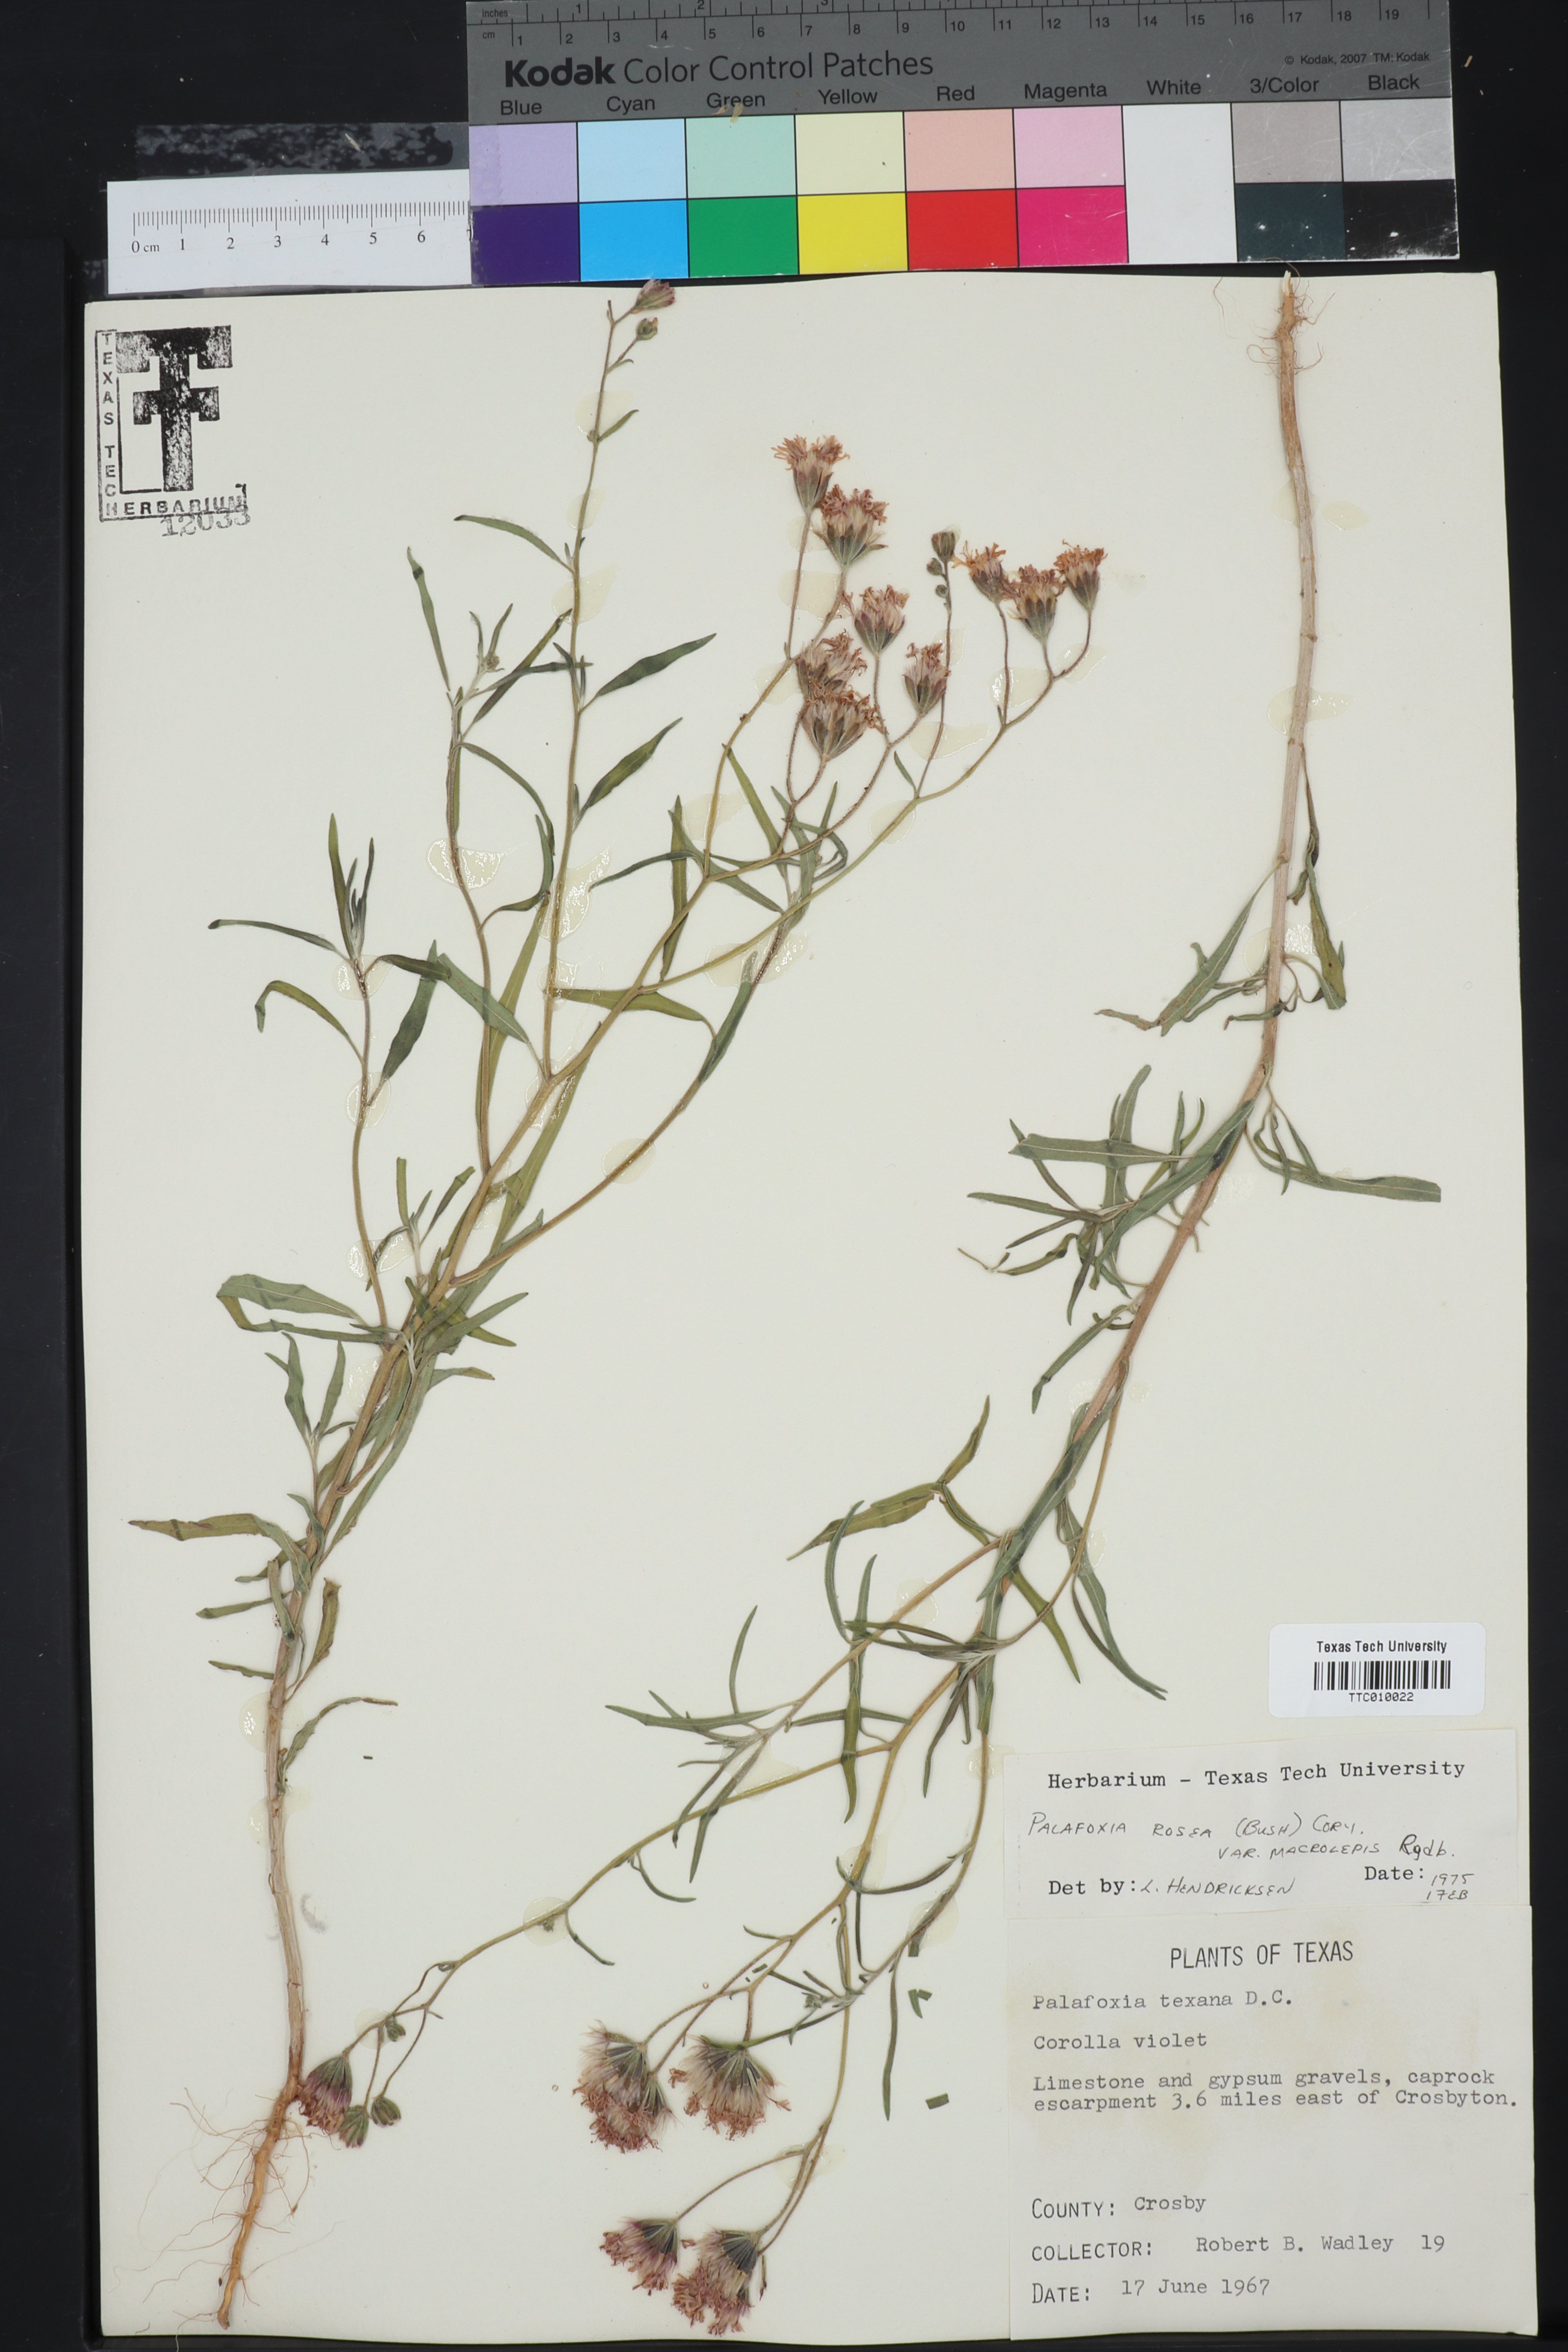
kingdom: Plantae
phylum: Tracheophyta
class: Magnoliopsida
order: Asterales
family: Asteraceae
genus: Palafoxia
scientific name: Palafoxia rosea
